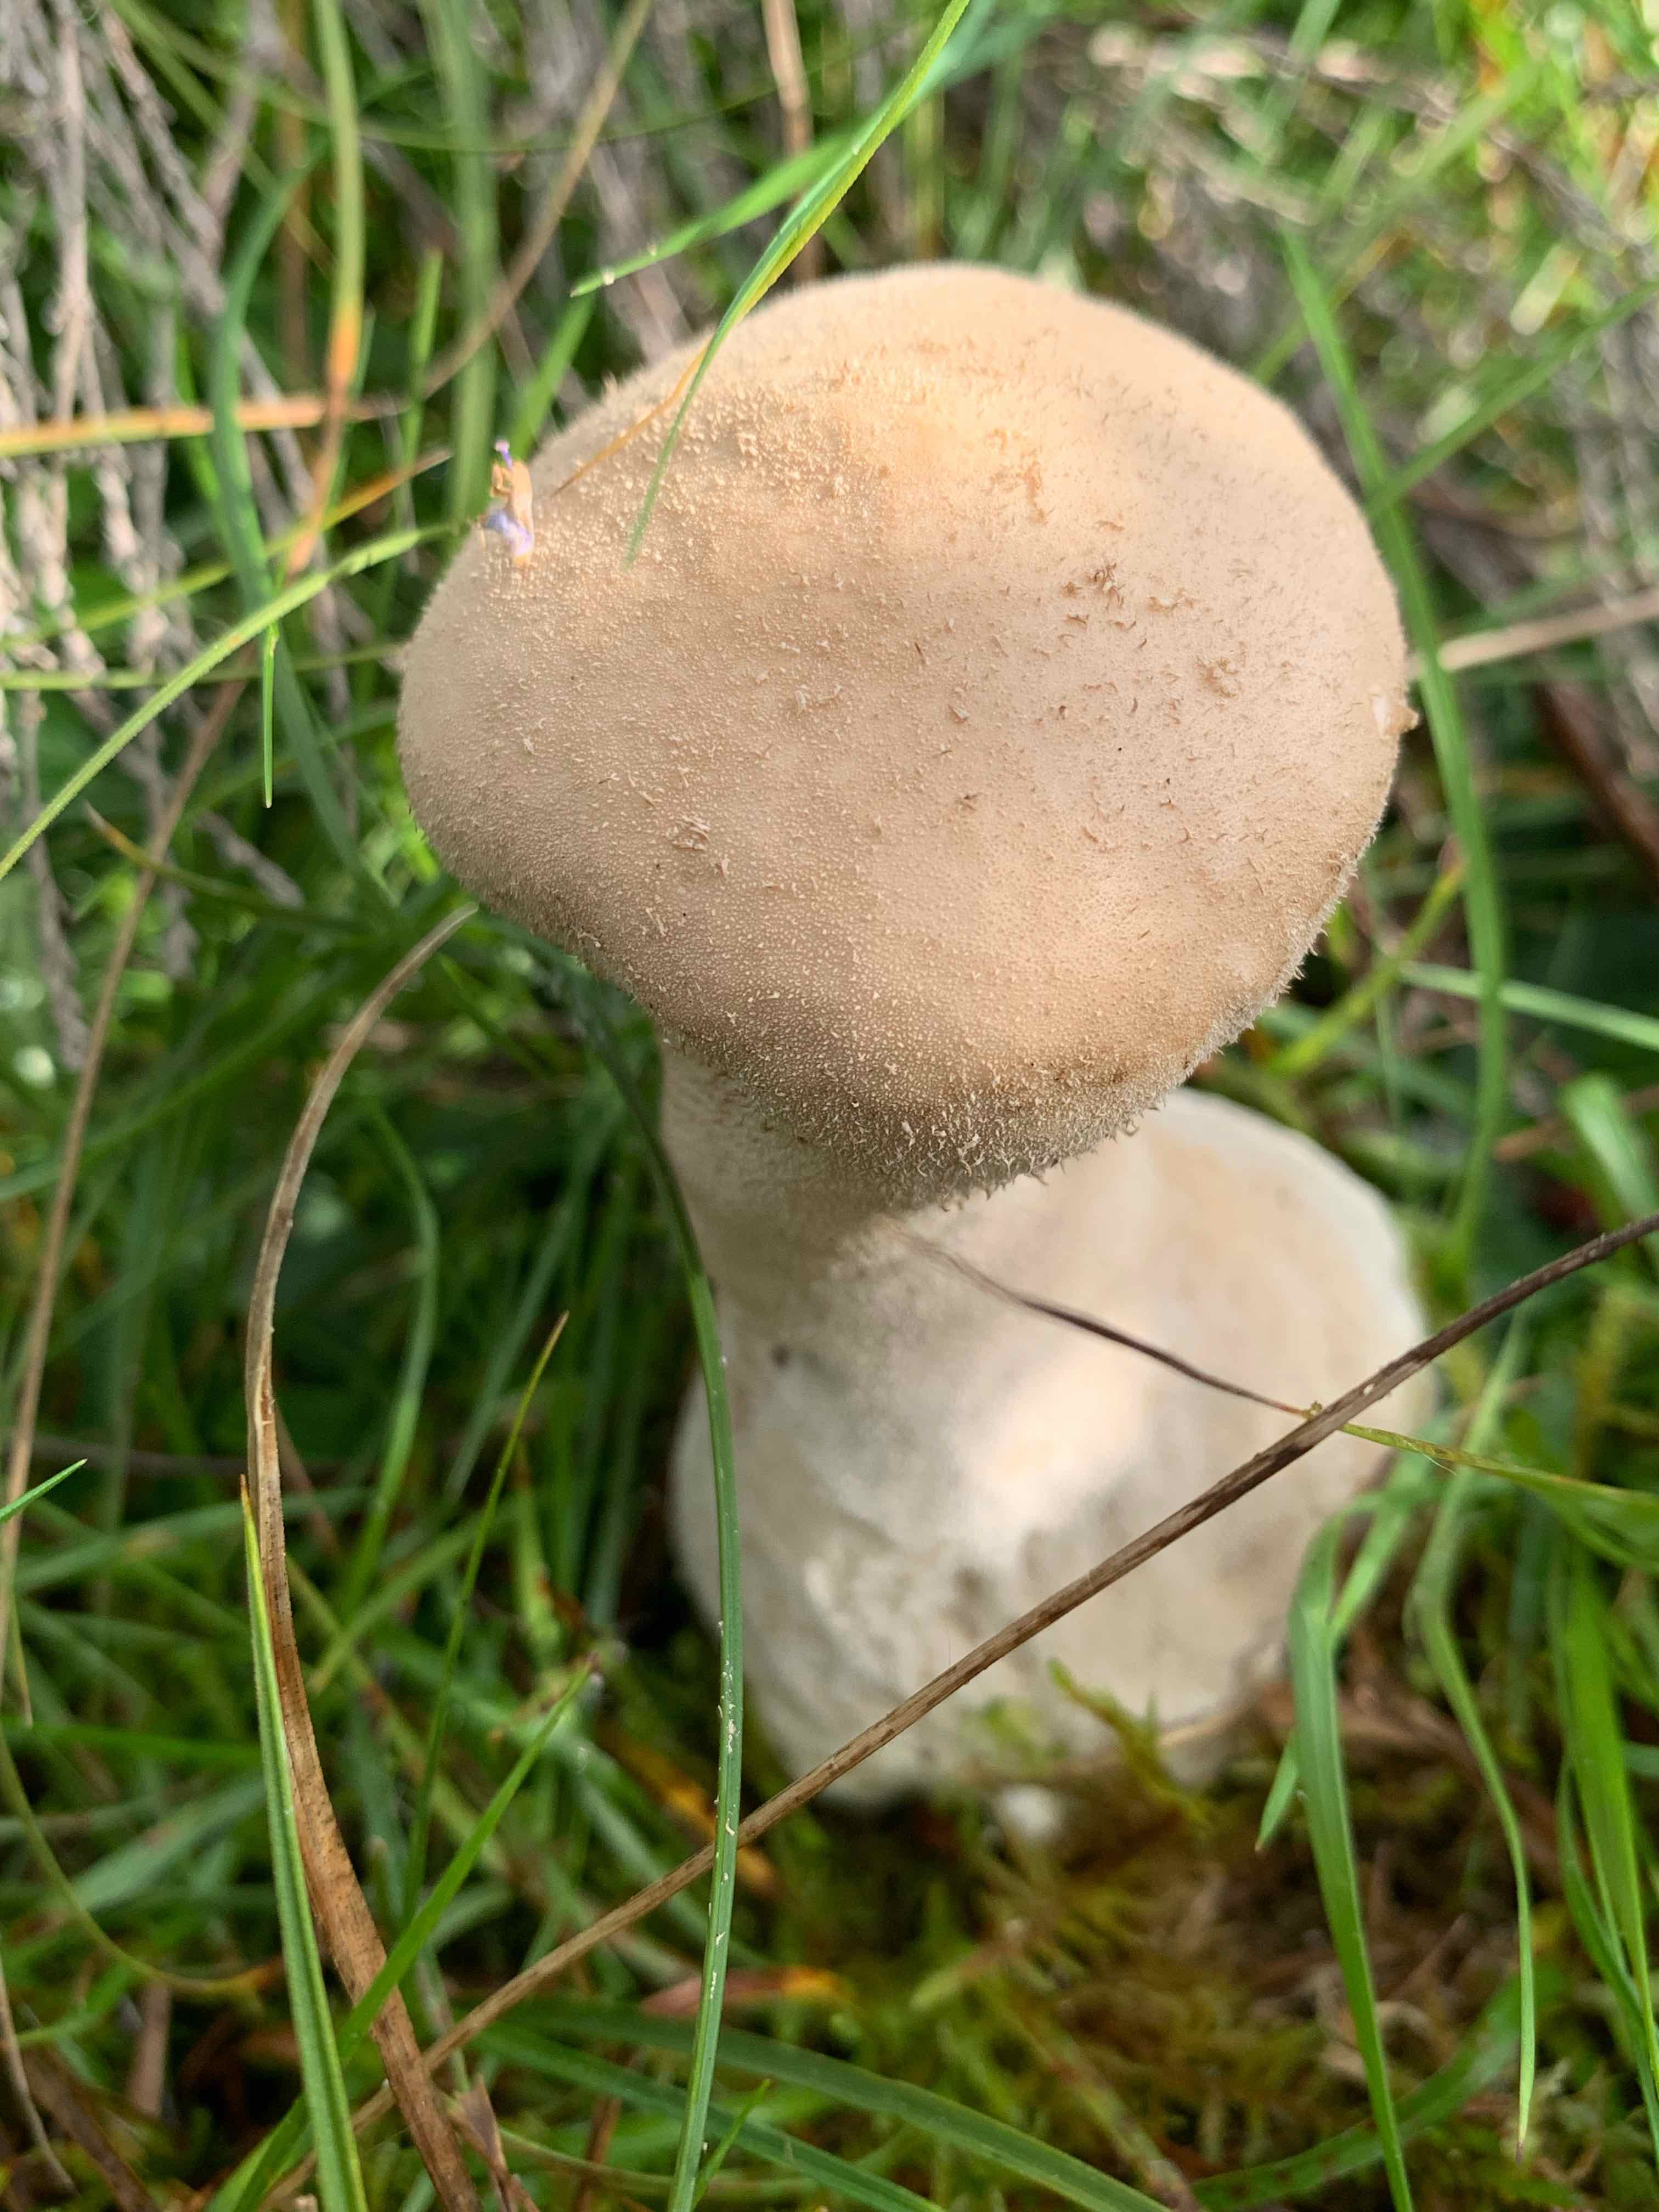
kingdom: Fungi
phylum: Basidiomycota
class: Agaricomycetes
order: Agaricales
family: Lycoperdaceae
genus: Lycoperdon
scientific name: Lycoperdon excipuliforme
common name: højstokket støvbold
